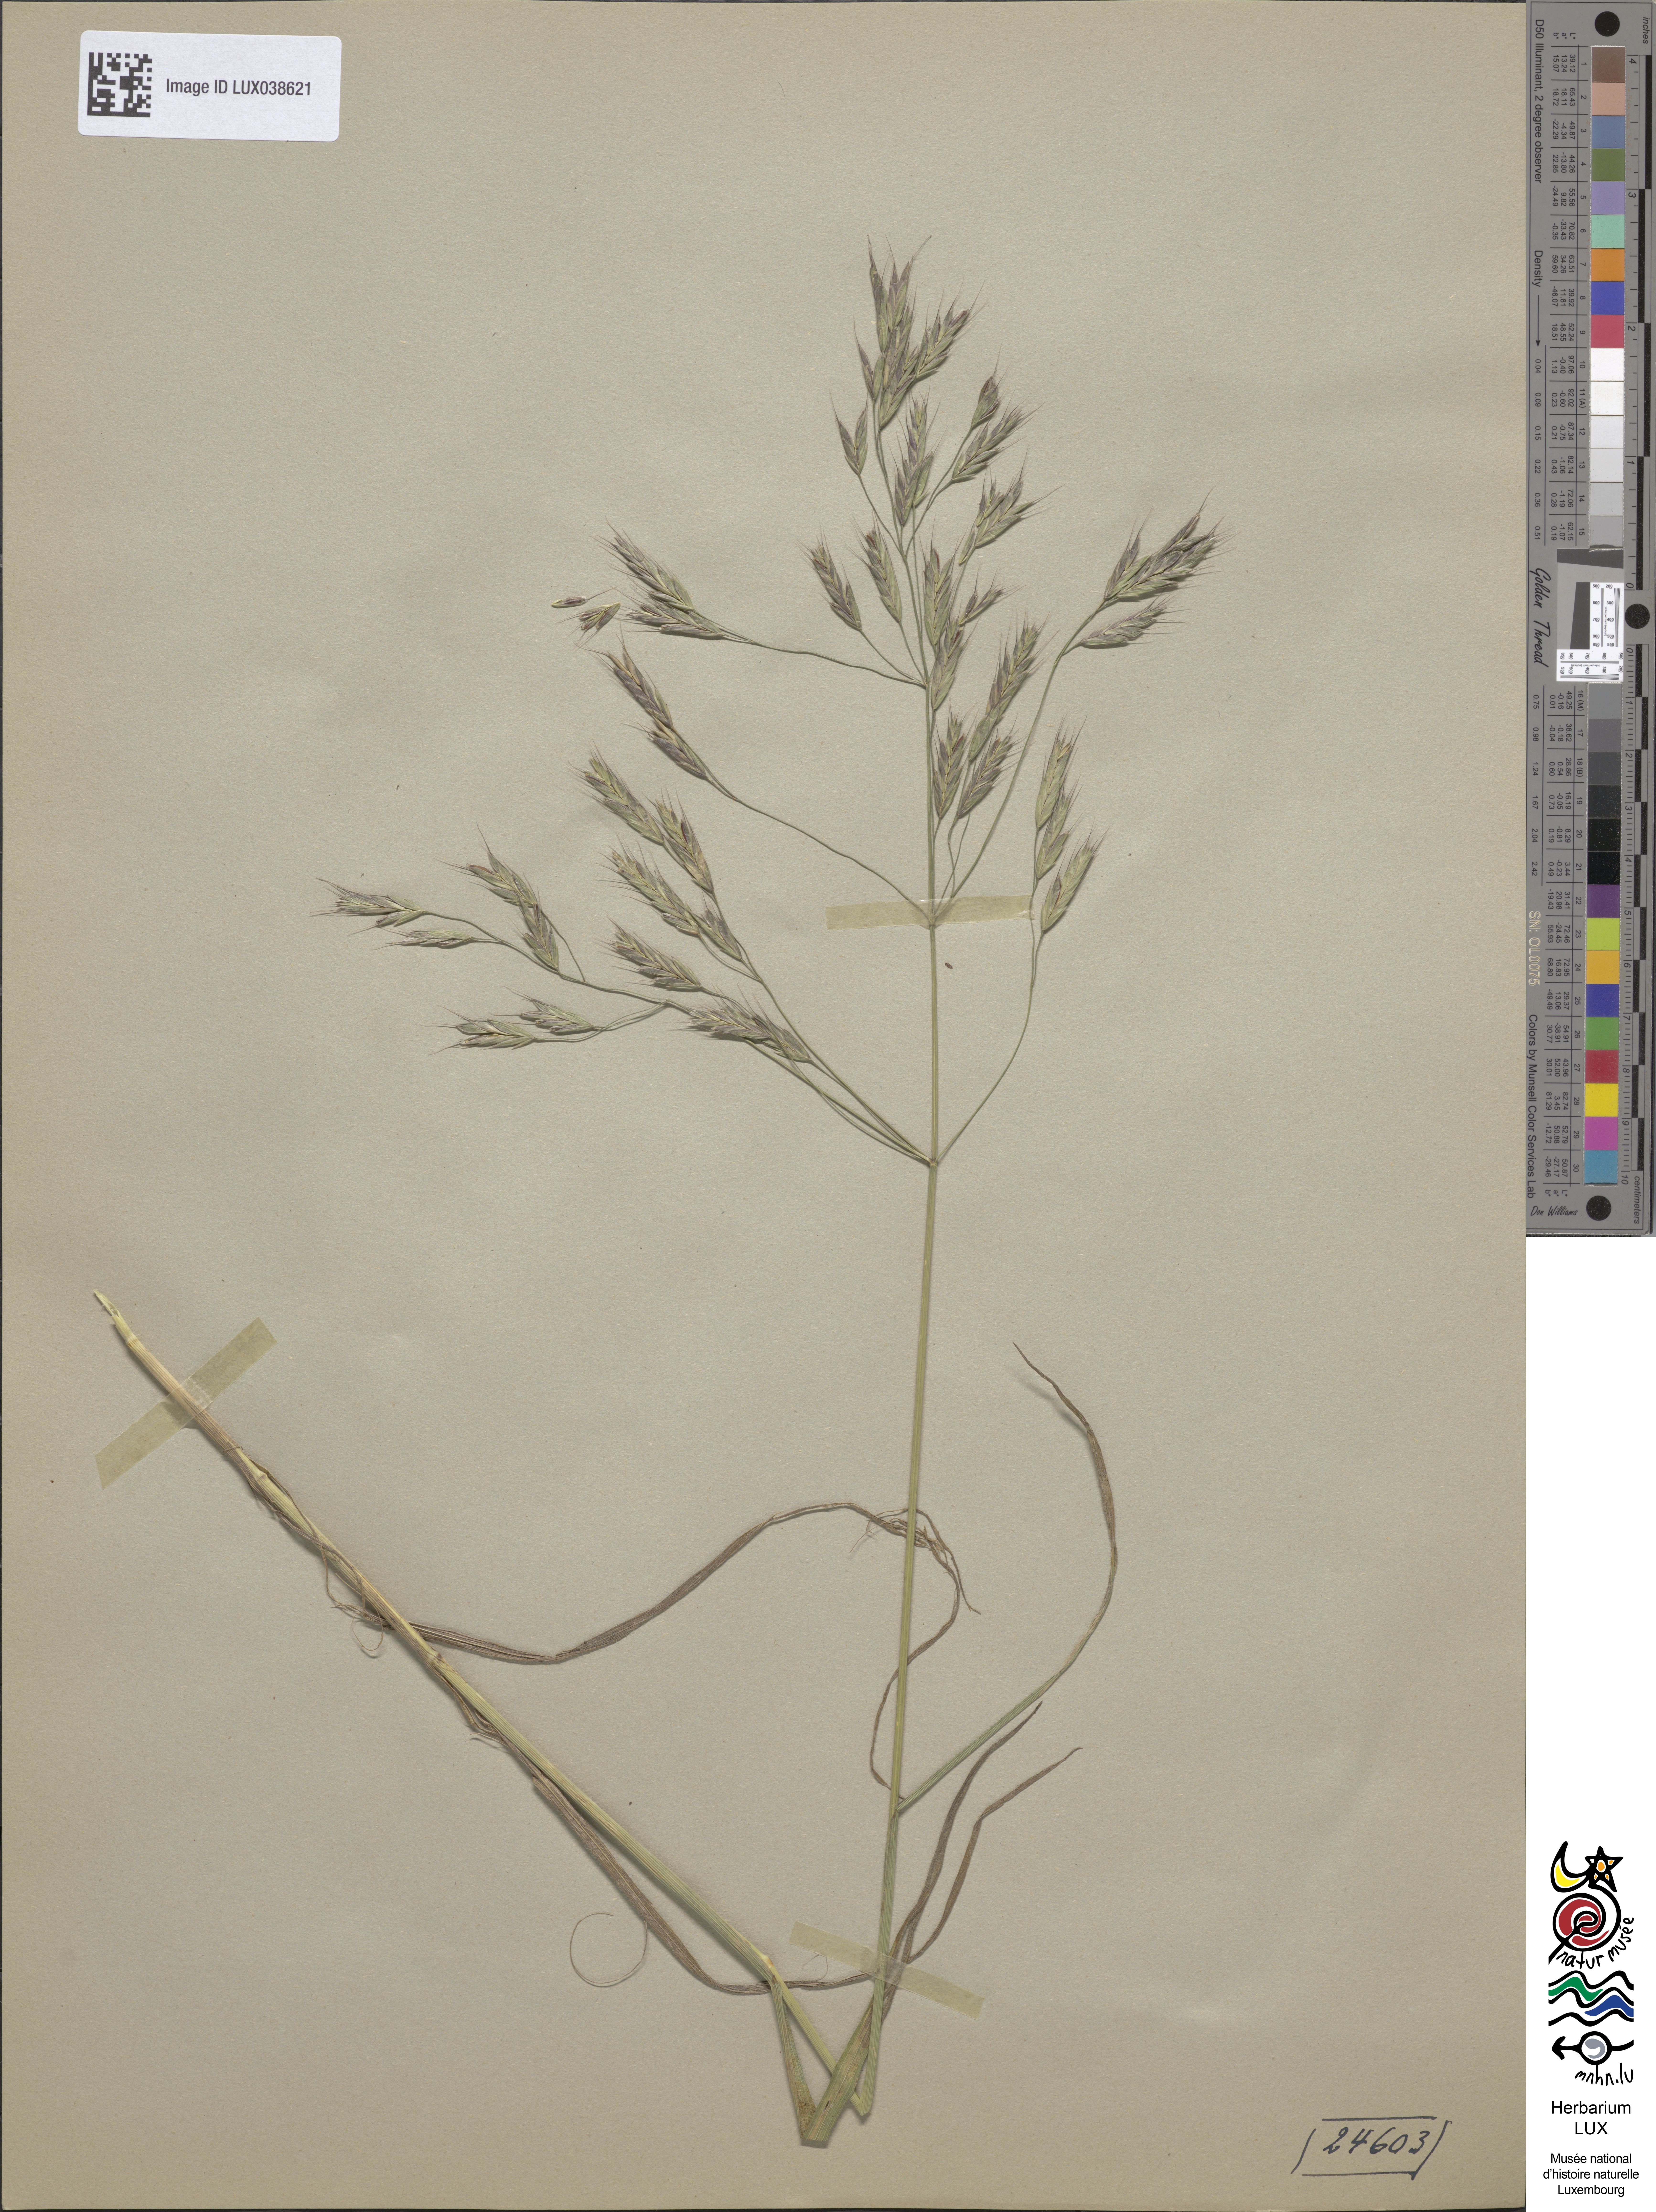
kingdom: Plantae
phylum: Tracheophyta
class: Liliopsida
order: Poales
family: Poaceae
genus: Bromus
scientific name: Bromus arvensis
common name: Field brome
